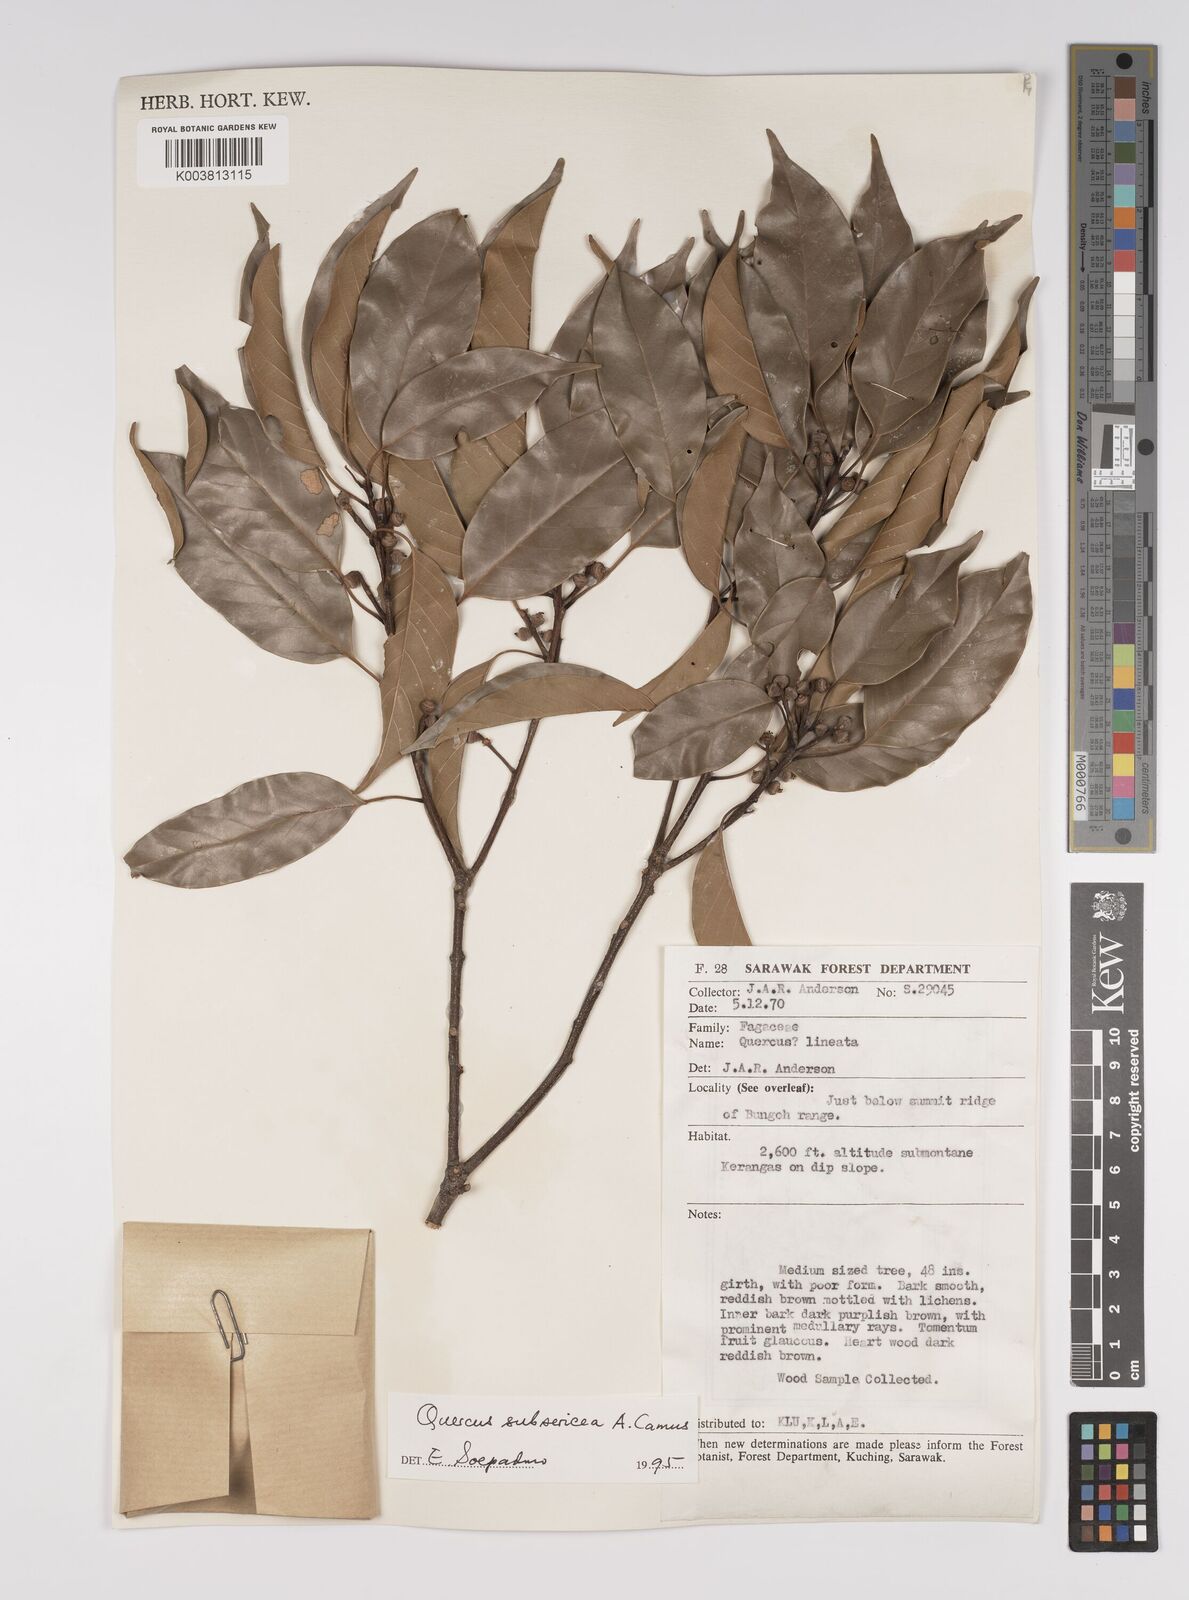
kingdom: Plantae
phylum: Tracheophyta
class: Magnoliopsida
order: Fagales
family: Fagaceae
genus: Quercus
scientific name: Quercus subsericea
